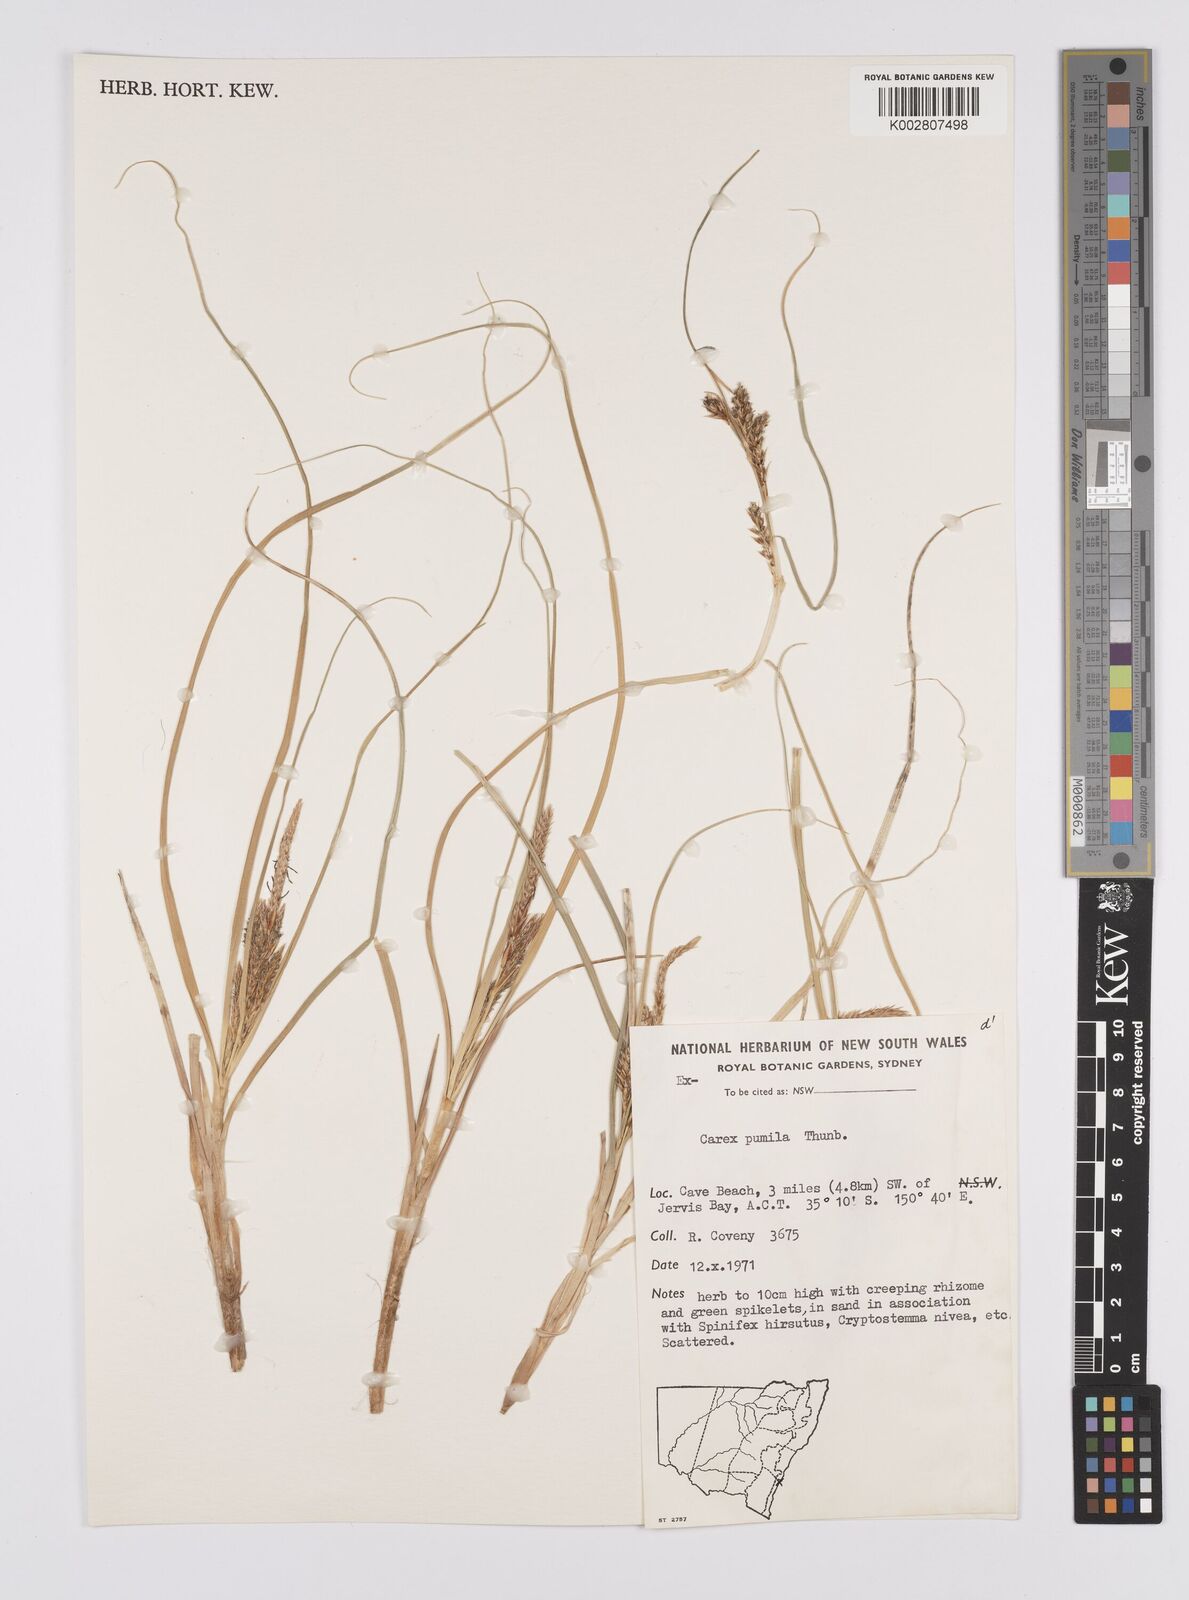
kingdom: Plantae
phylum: Tracheophyta
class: Liliopsida
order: Poales
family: Cyperaceae
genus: Carex
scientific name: Carex pumila
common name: Dwarf sedge
